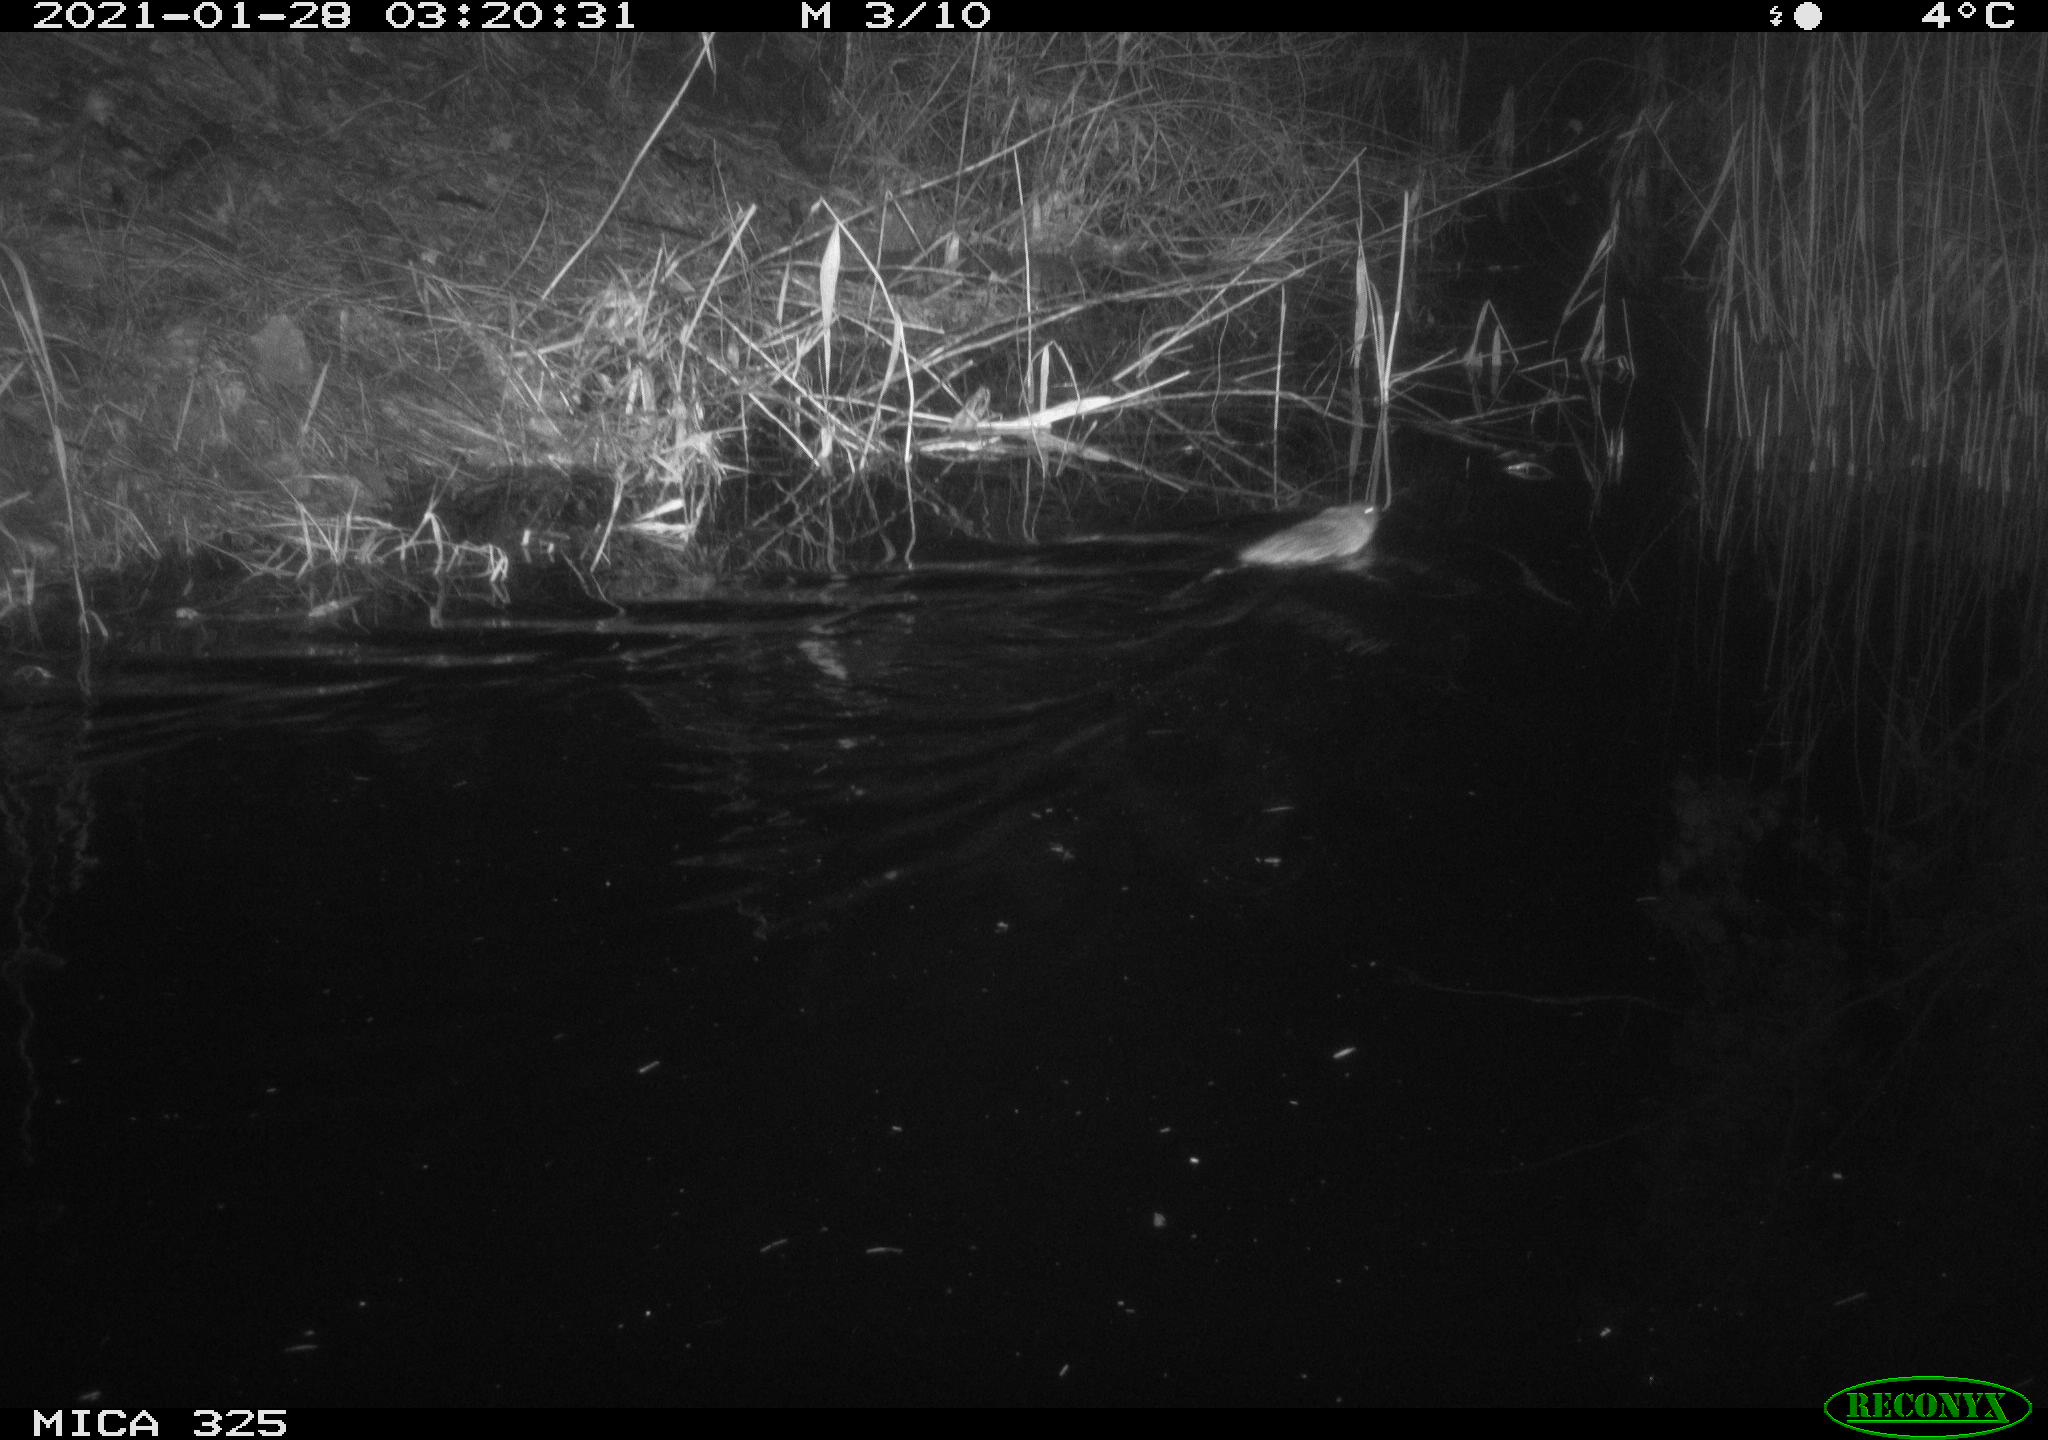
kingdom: Animalia
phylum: Chordata
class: Mammalia
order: Rodentia
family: Cricetidae
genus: Ondatra
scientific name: Ondatra zibethicus
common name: Muskrat
